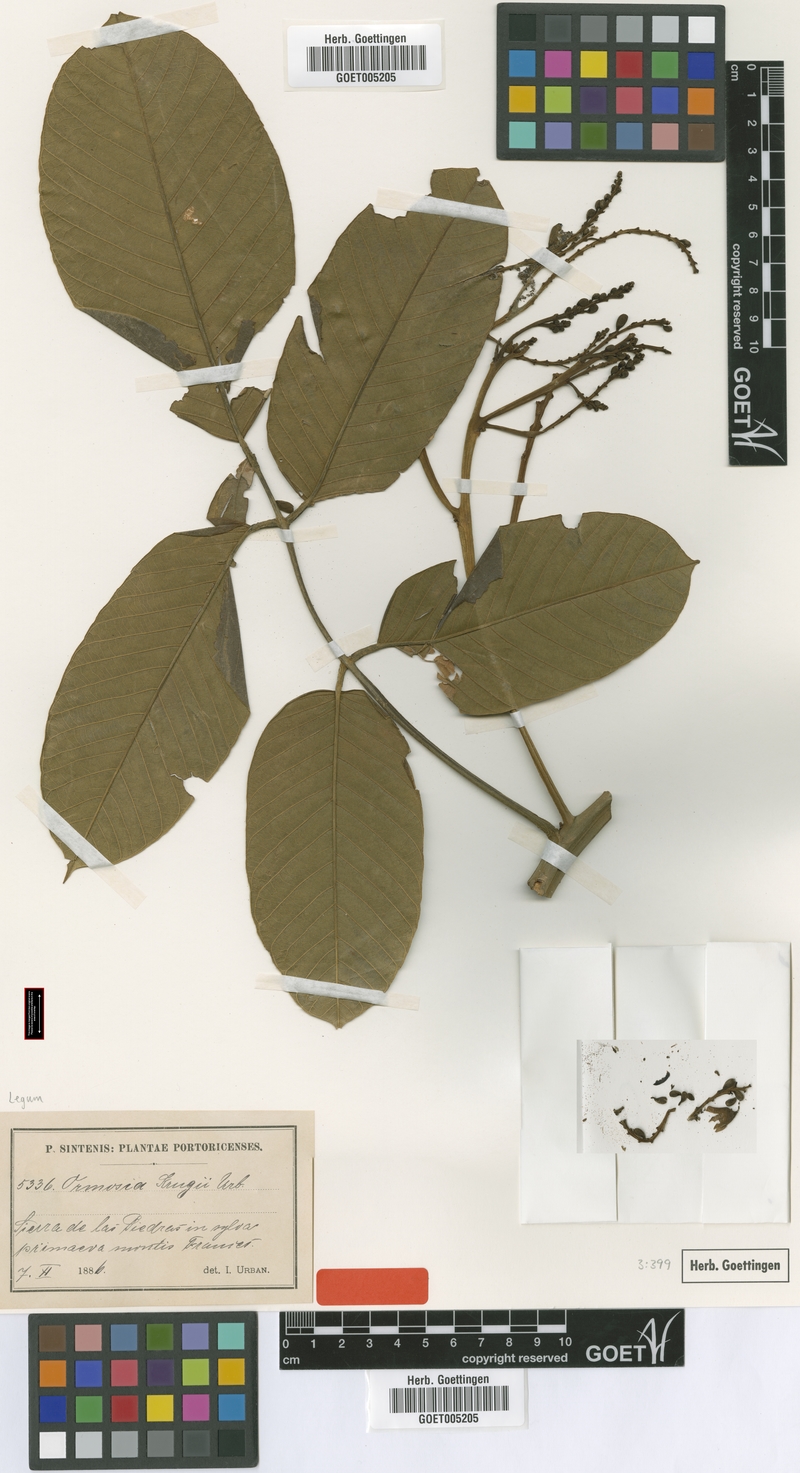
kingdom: Plantae
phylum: Tracheophyta
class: Magnoliopsida
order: Fabales
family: Fabaceae
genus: Ormosia
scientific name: Ormosia krugii
